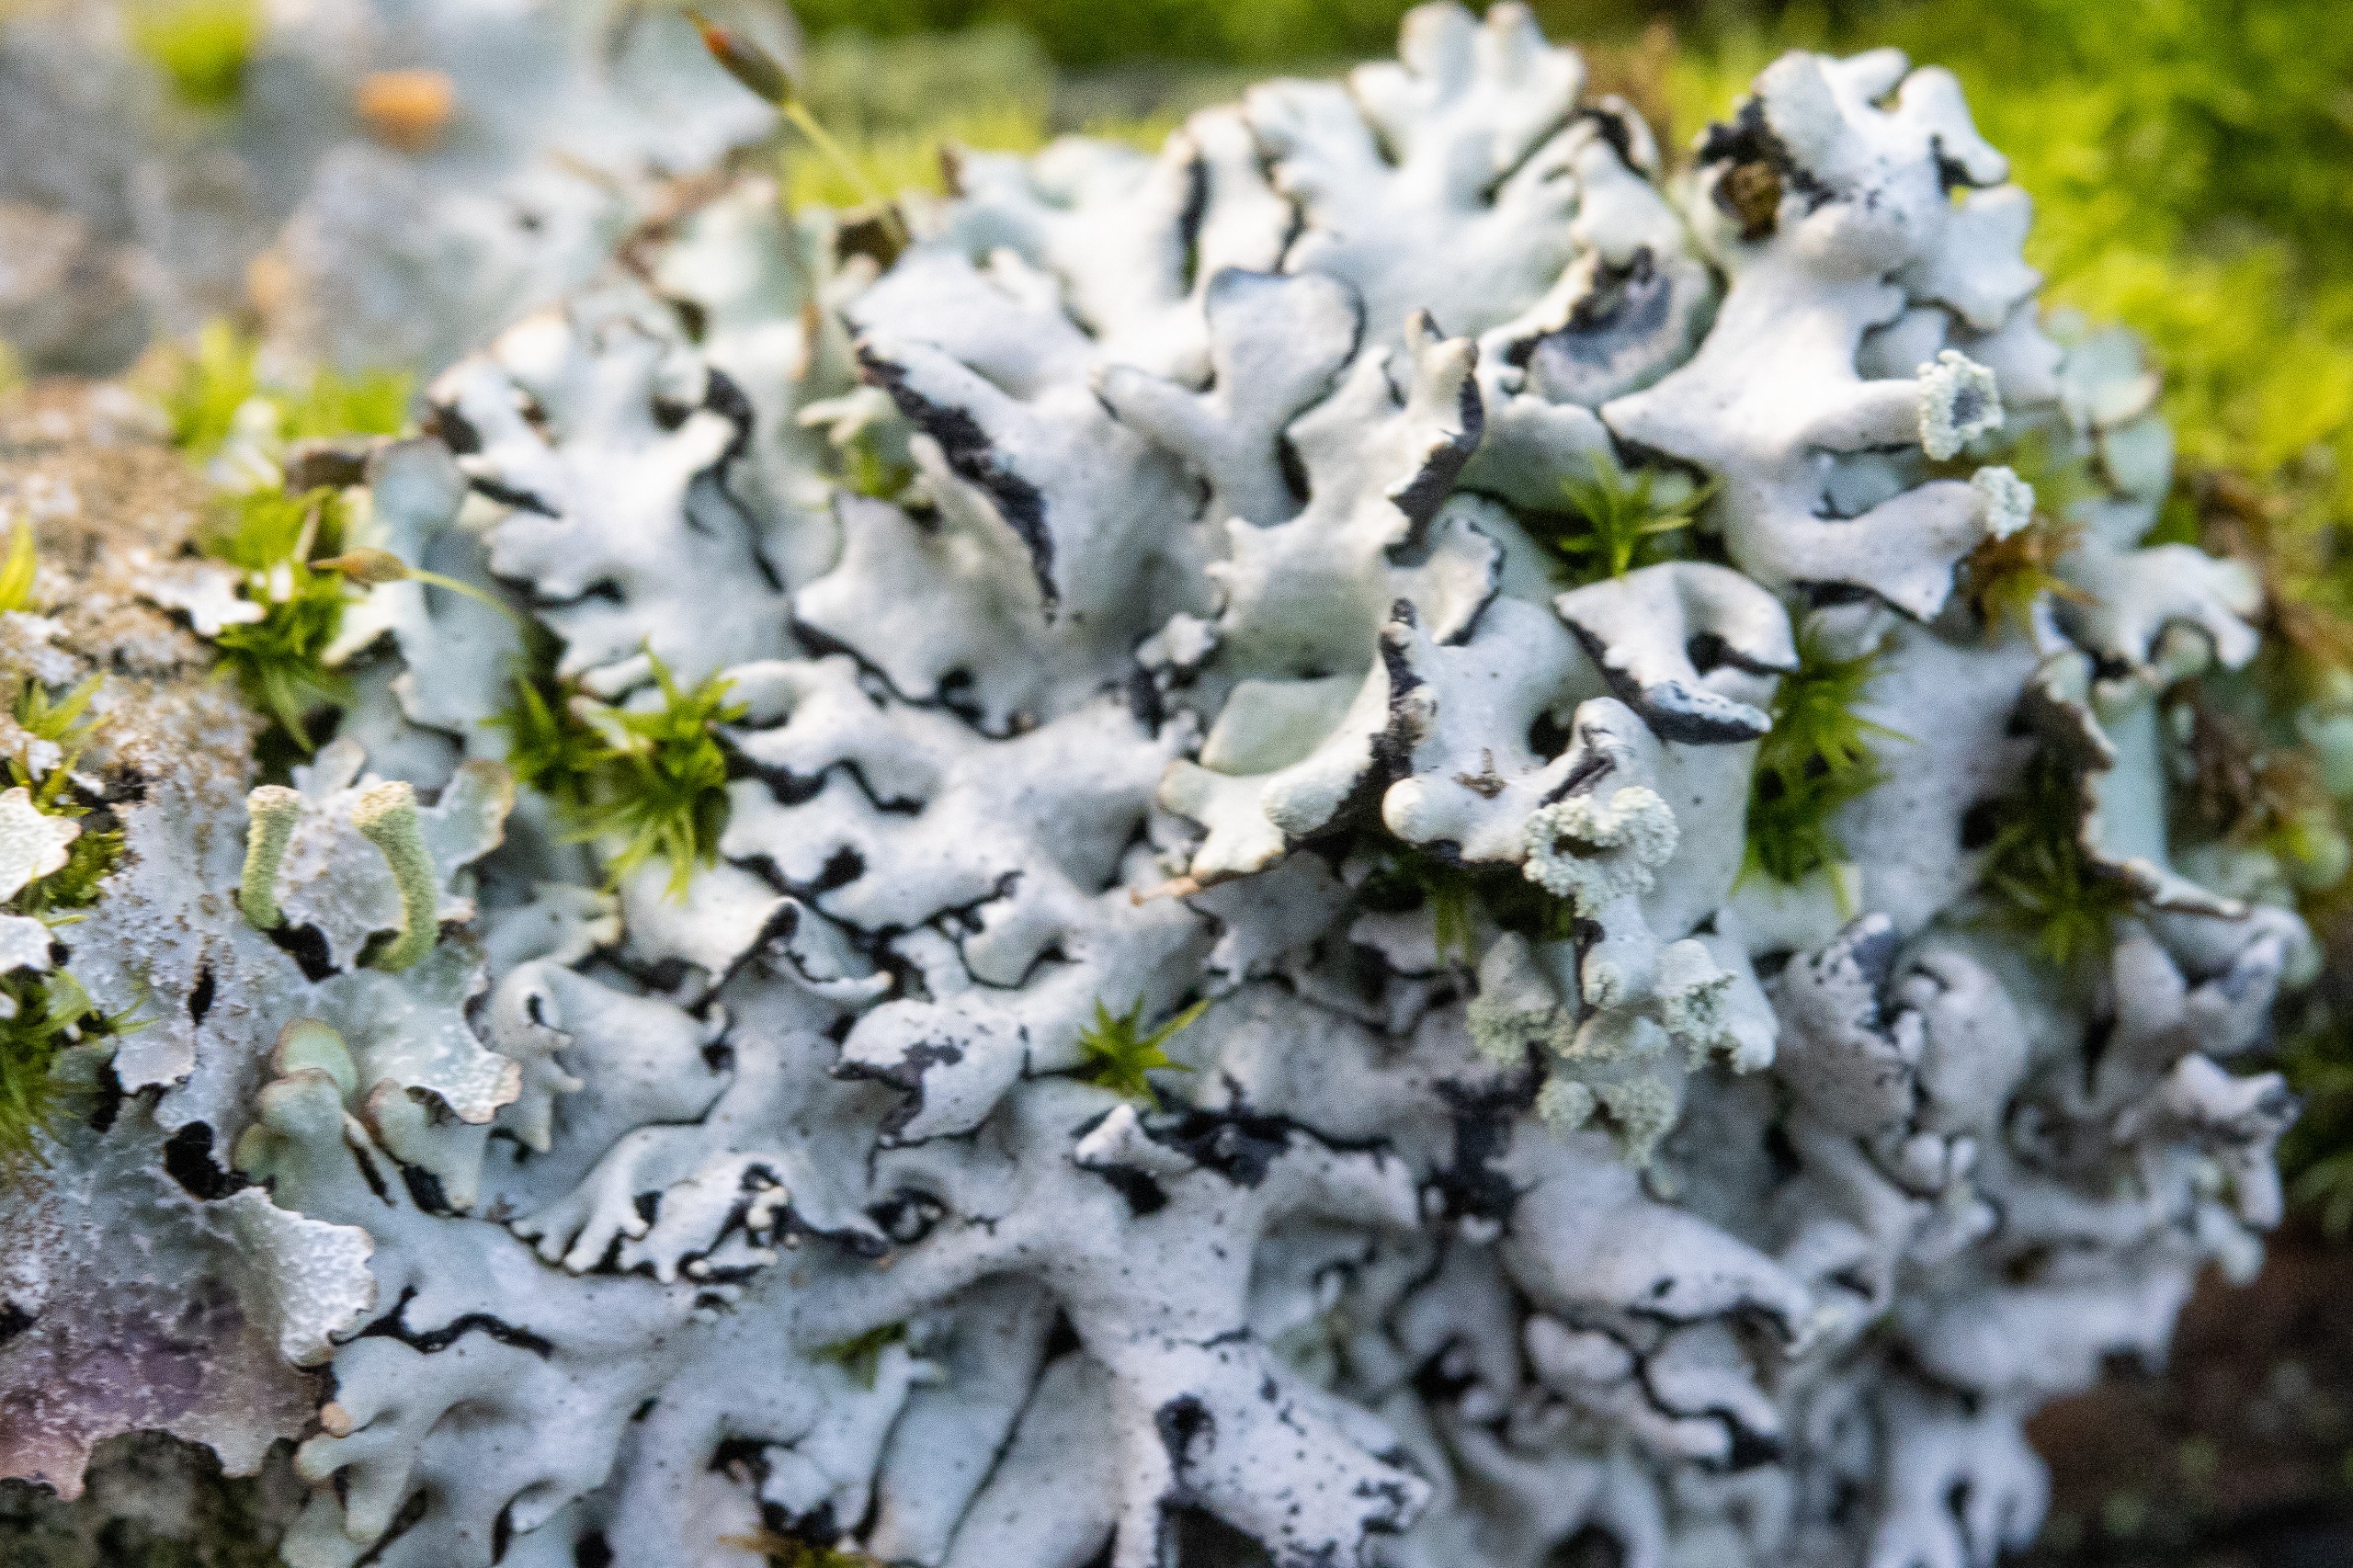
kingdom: Fungi
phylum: Ascomycota
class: Lecanoromycetes
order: Lecanorales
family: Parmeliaceae
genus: Hypogymnia
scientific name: Hypogymnia physodes
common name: Almindelig kvistlav
